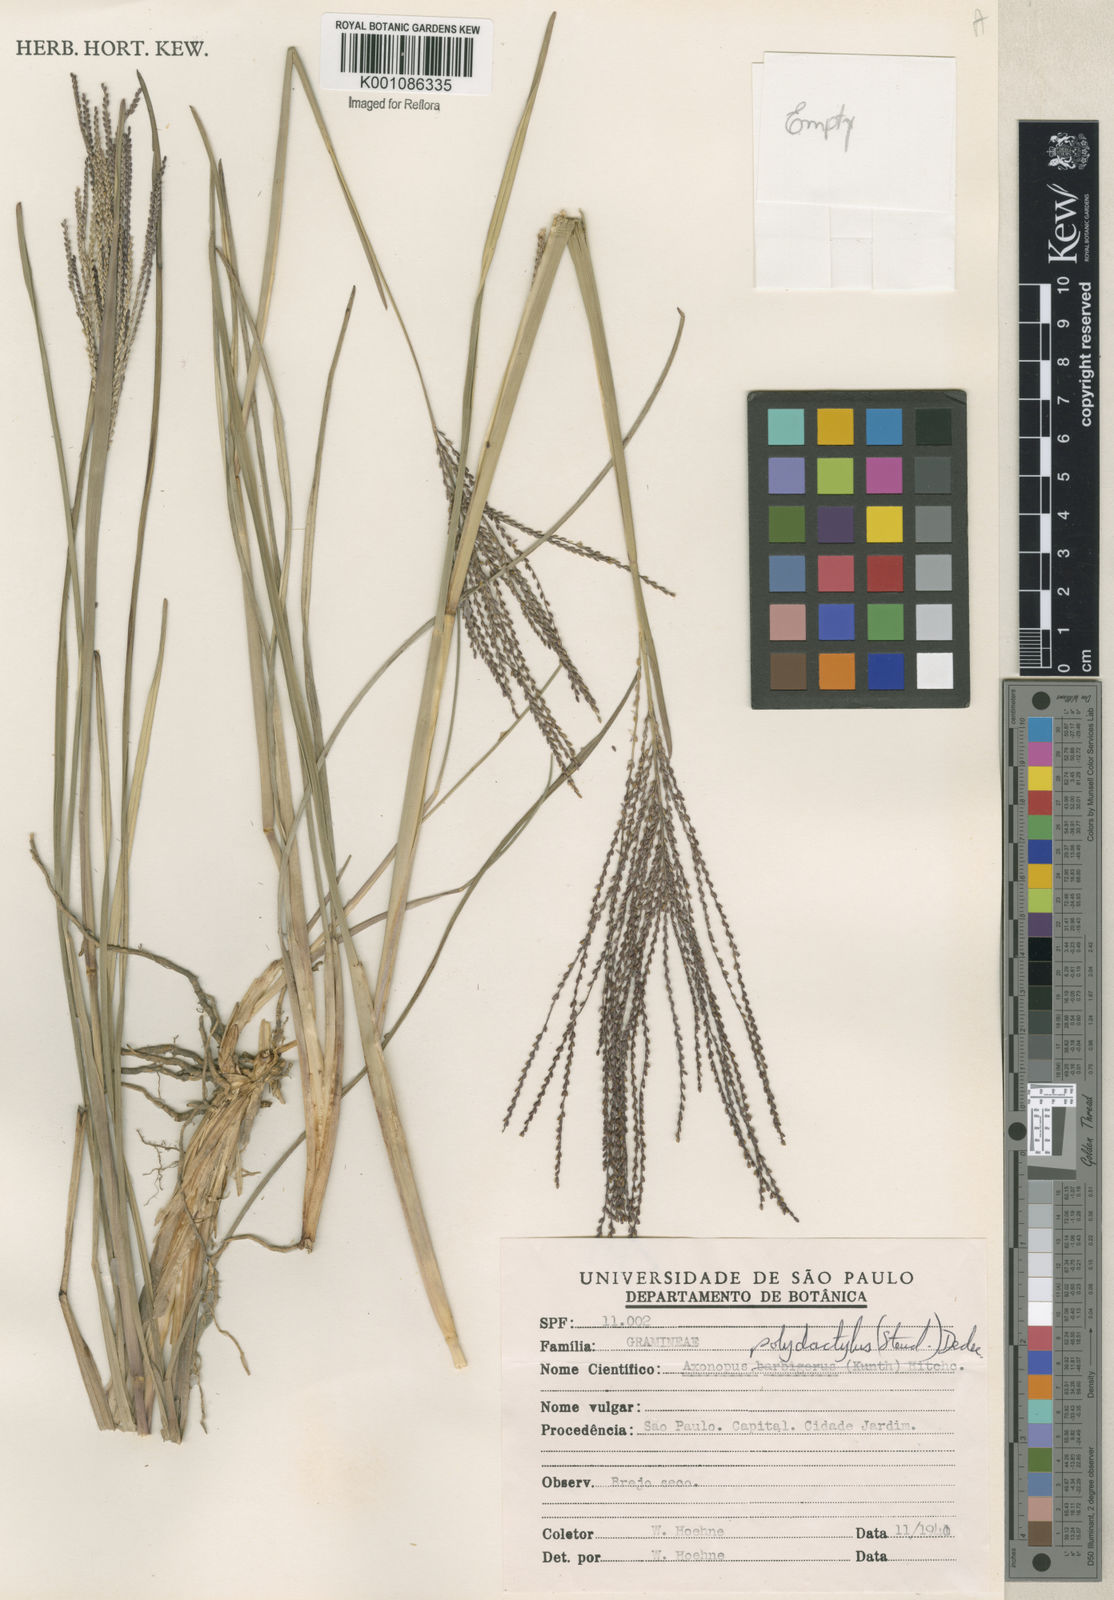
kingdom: Plantae
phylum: Tracheophyta
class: Liliopsida
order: Poales
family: Poaceae
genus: Axonopus
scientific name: Axonopus polydactylus
